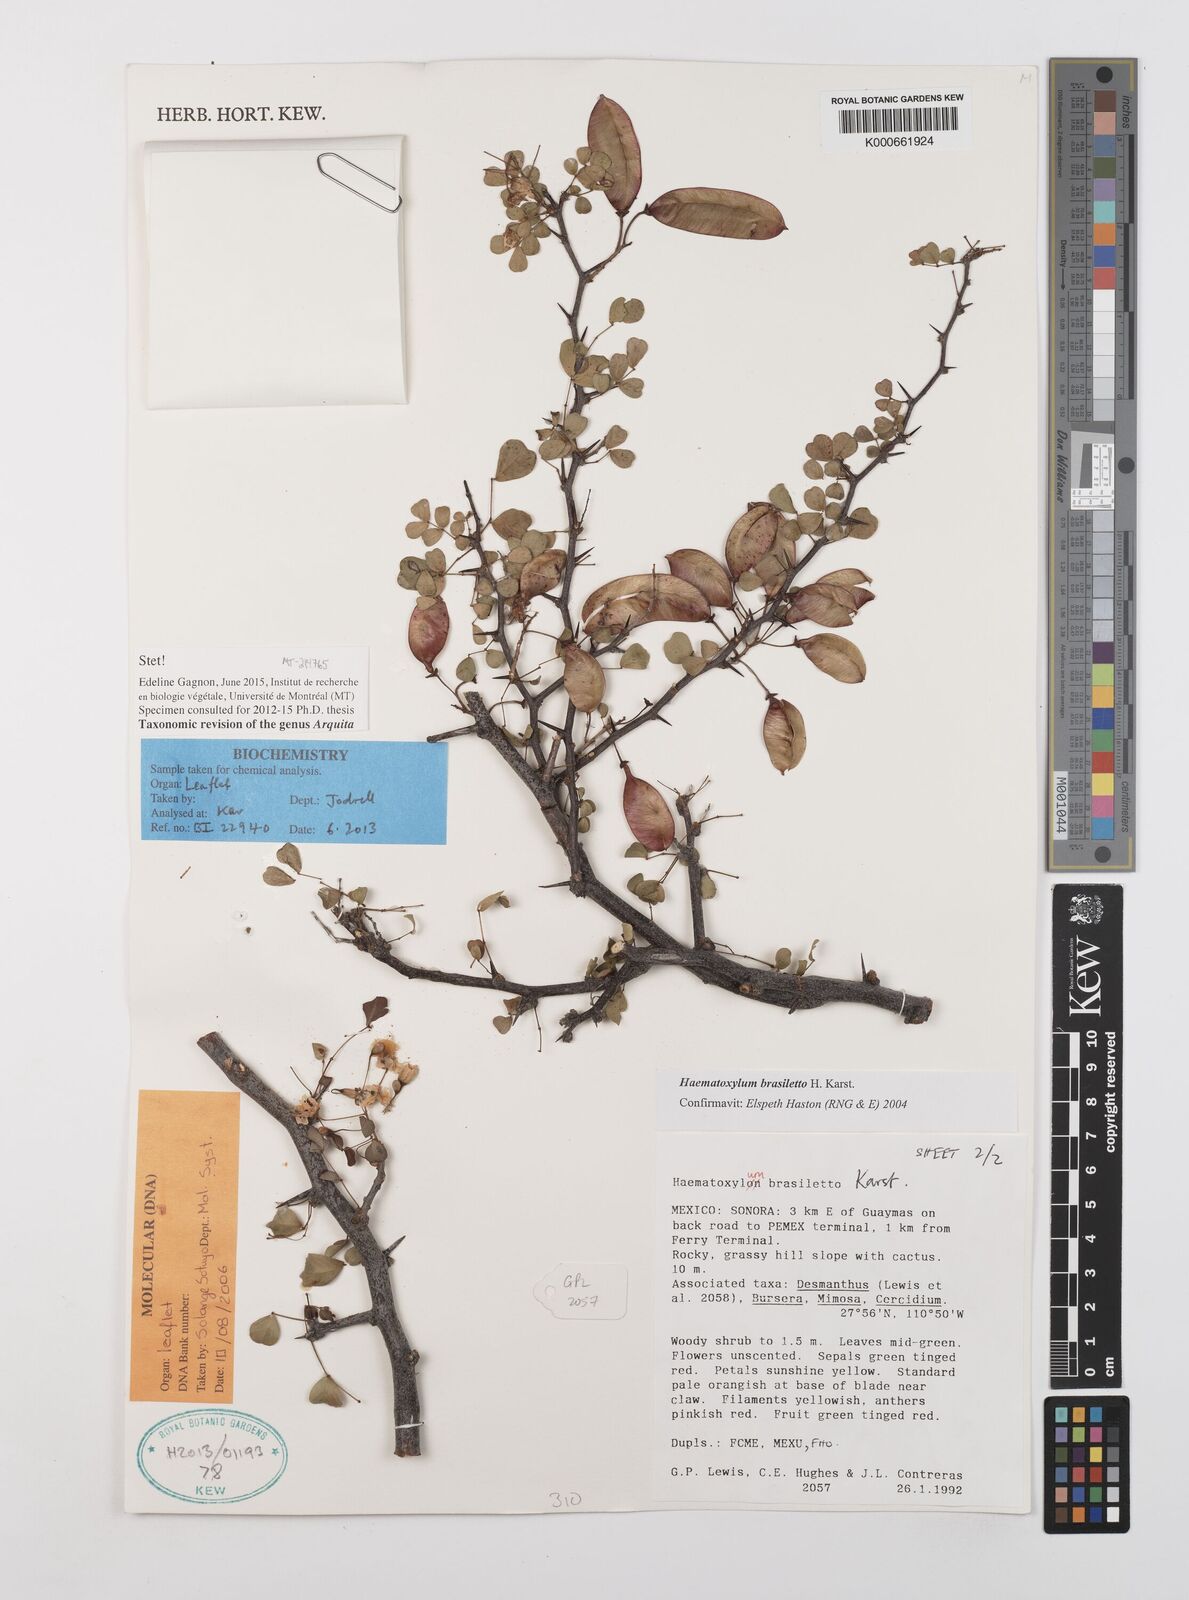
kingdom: Plantae
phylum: Tracheophyta
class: Magnoliopsida
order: Fabales
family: Fabaceae
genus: Haematoxylum
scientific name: Haematoxylum brasiletto
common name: Peachwood
